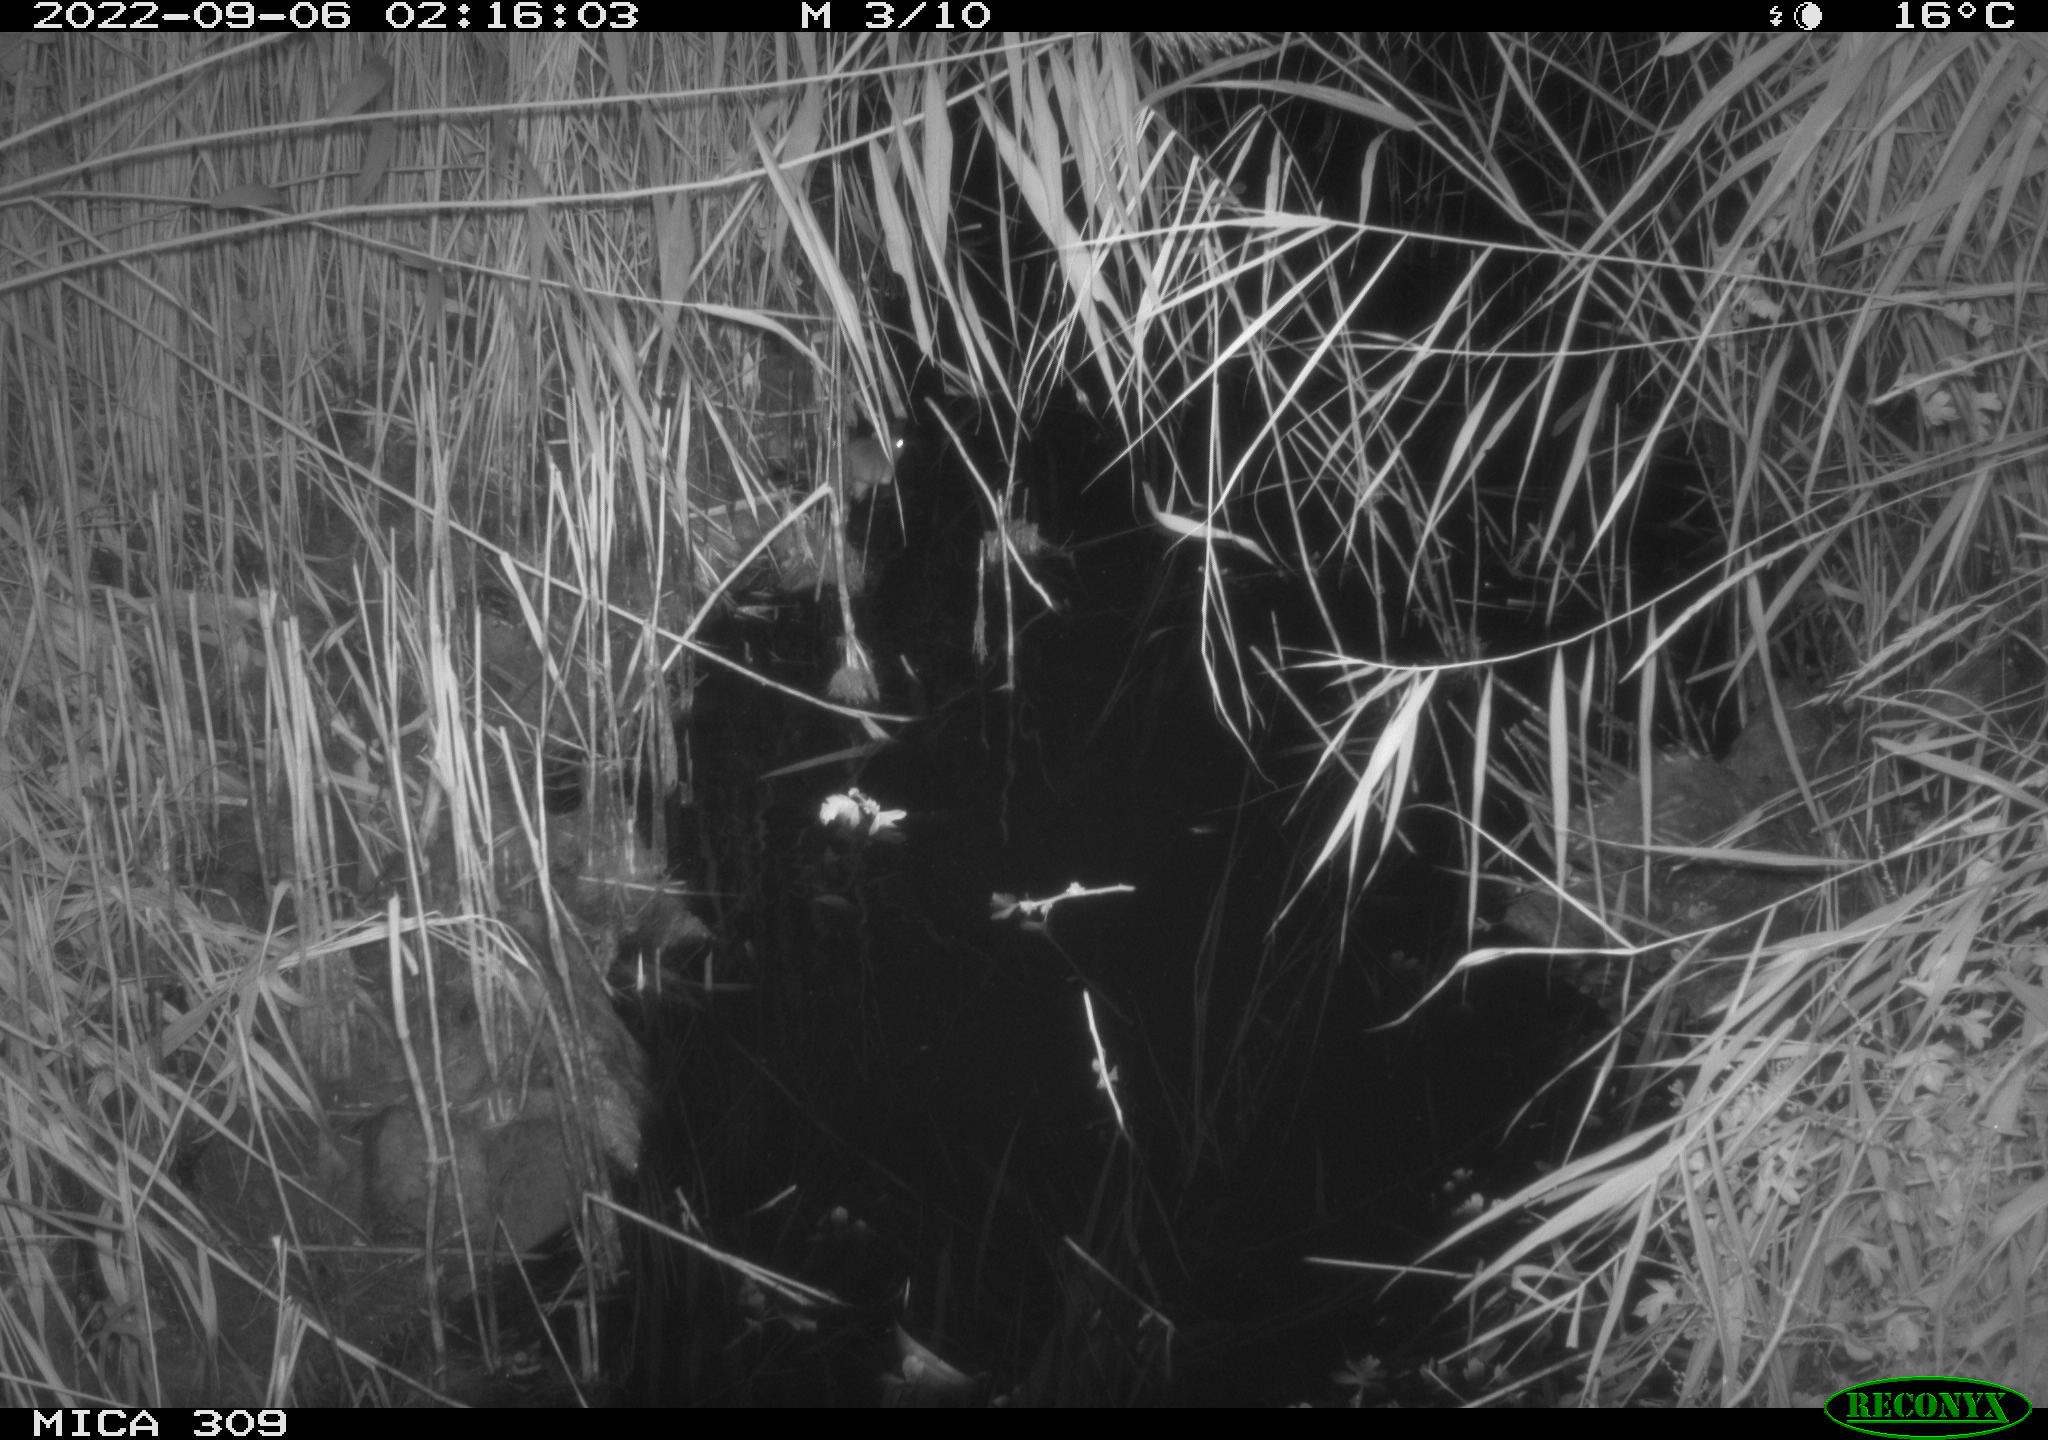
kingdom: Animalia
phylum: Chordata
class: Mammalia
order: Rodentia
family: Muridae
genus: Rattus
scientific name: Rattus norvegicus
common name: Brown rat
